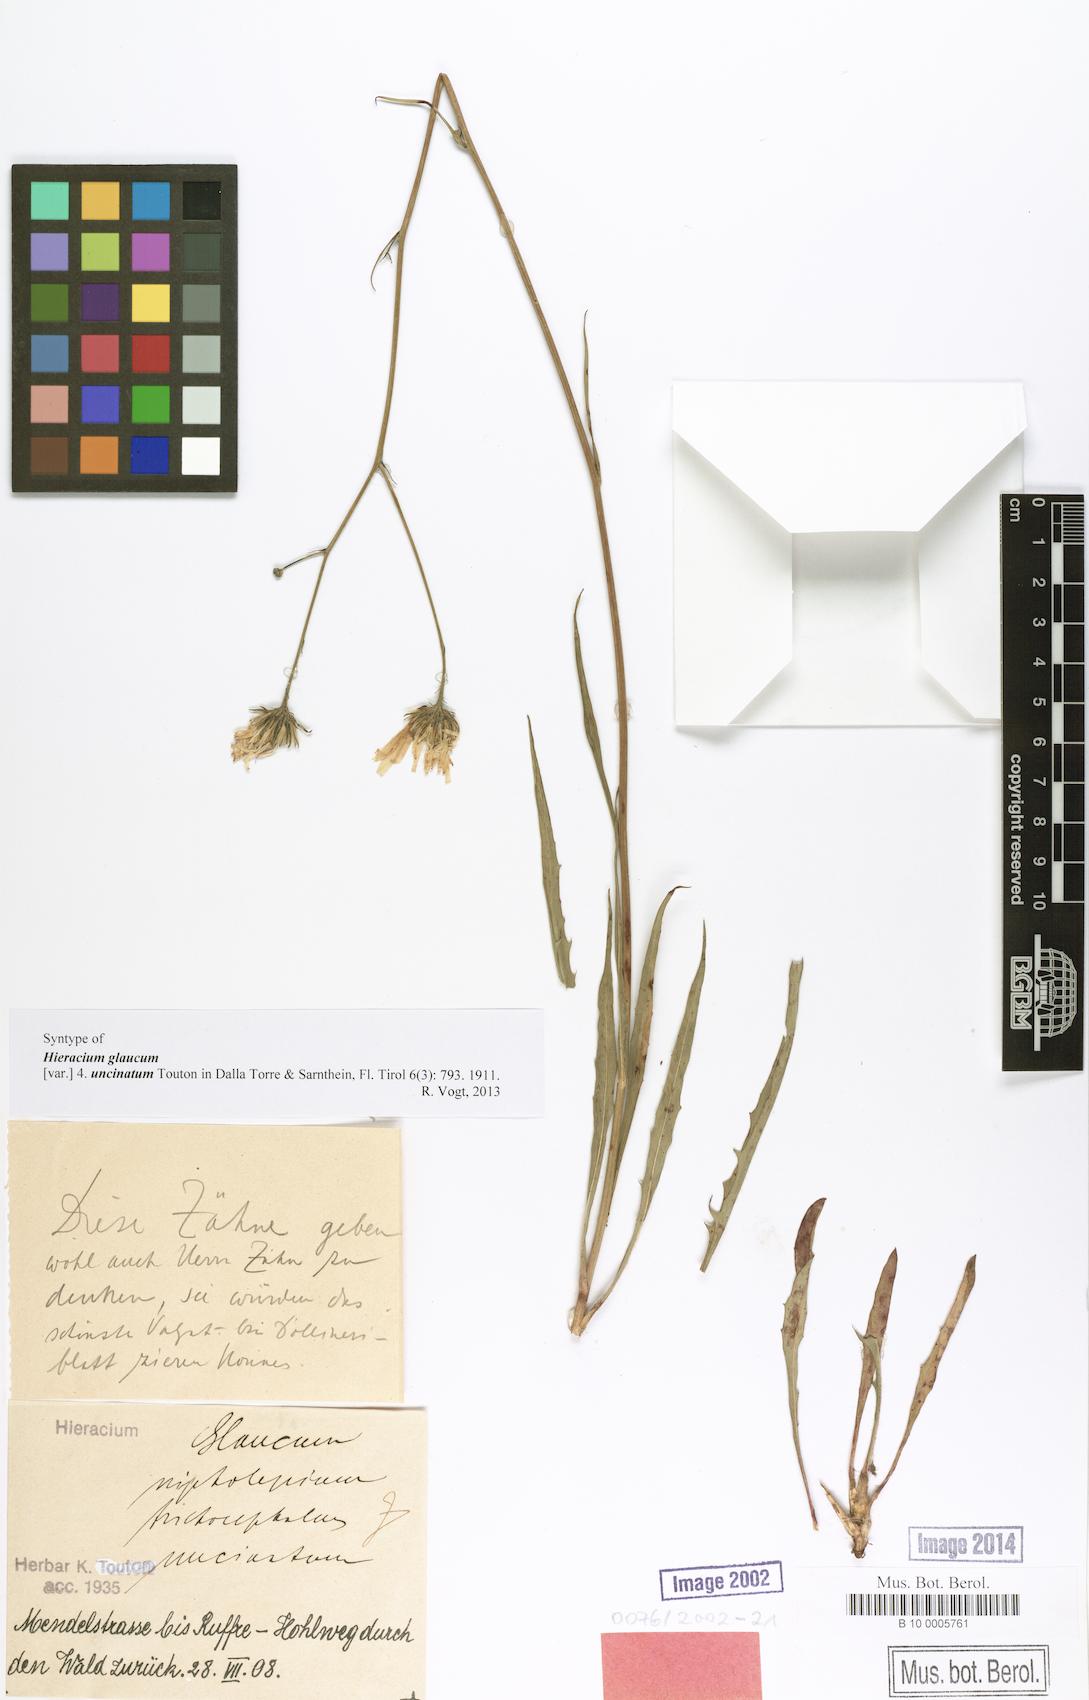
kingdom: Plantae
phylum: Tracheophyta
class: Magnoliopsida
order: Asterales
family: Asteraceae
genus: Hieracium
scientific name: Hieracium glaucum
